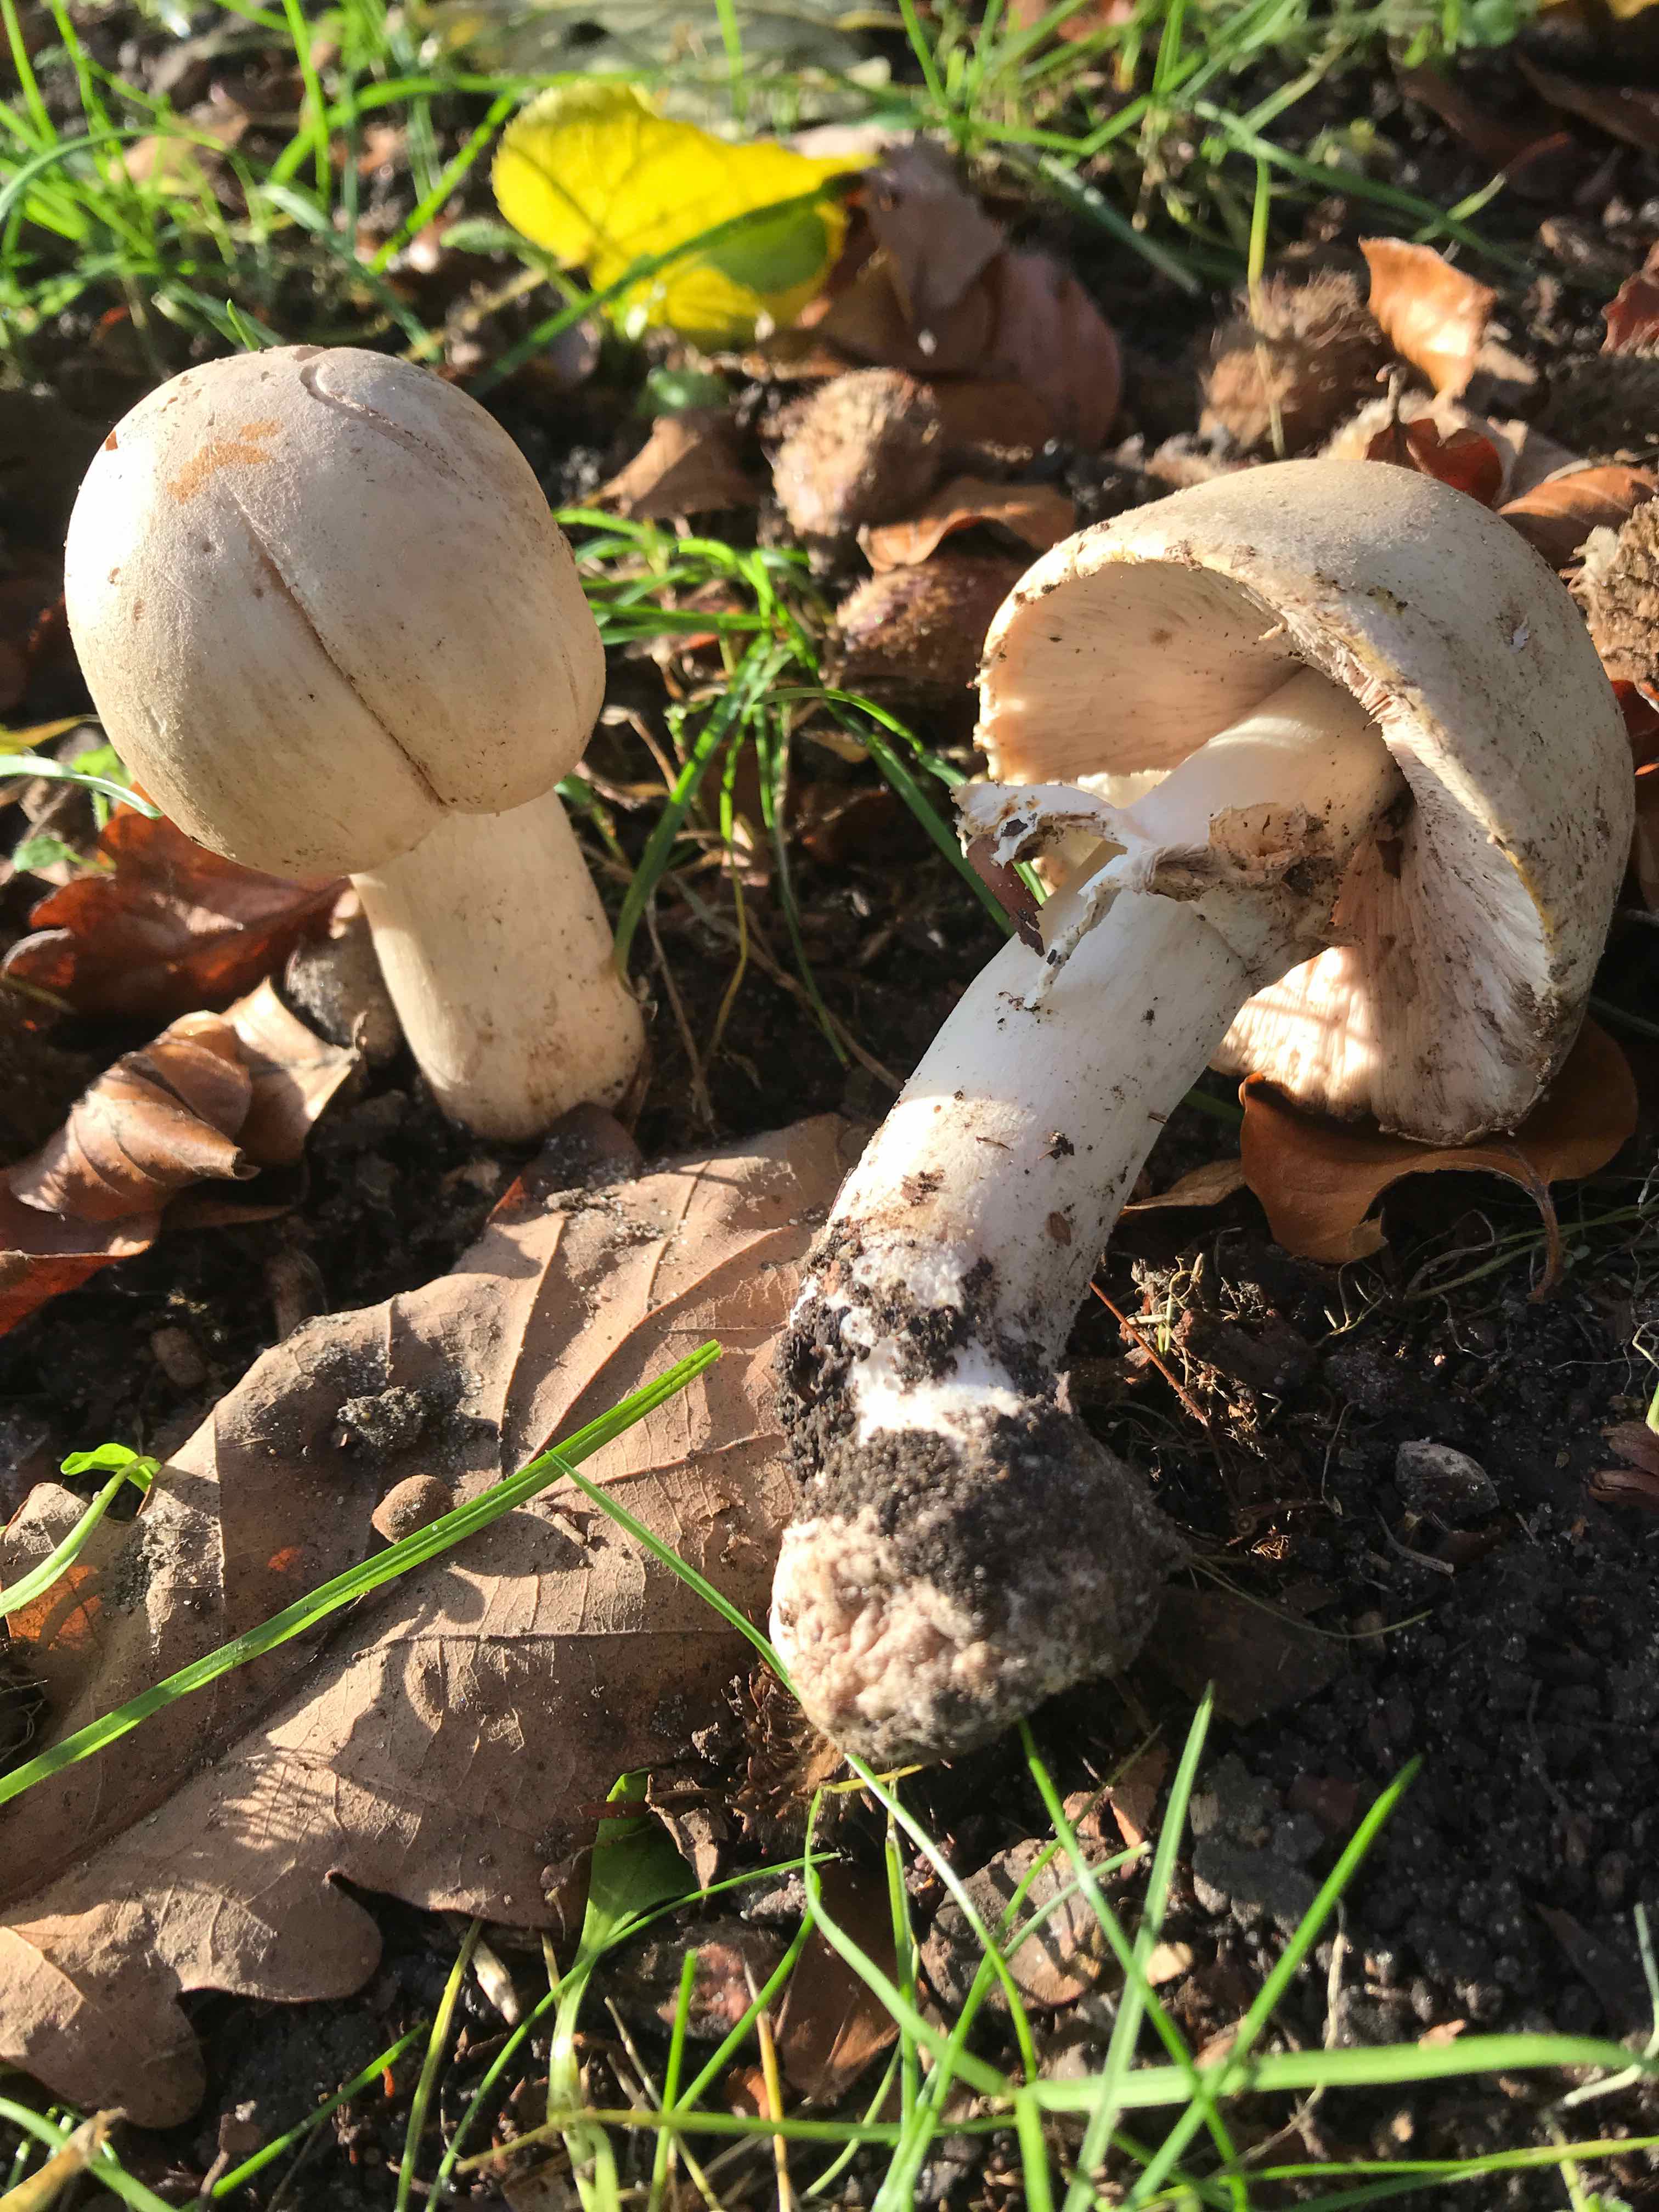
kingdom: Fungi
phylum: Basidiomycota
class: Agaricomycetes
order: Agaricales
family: Agaricaceae
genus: Agaricus
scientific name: Agaricus
